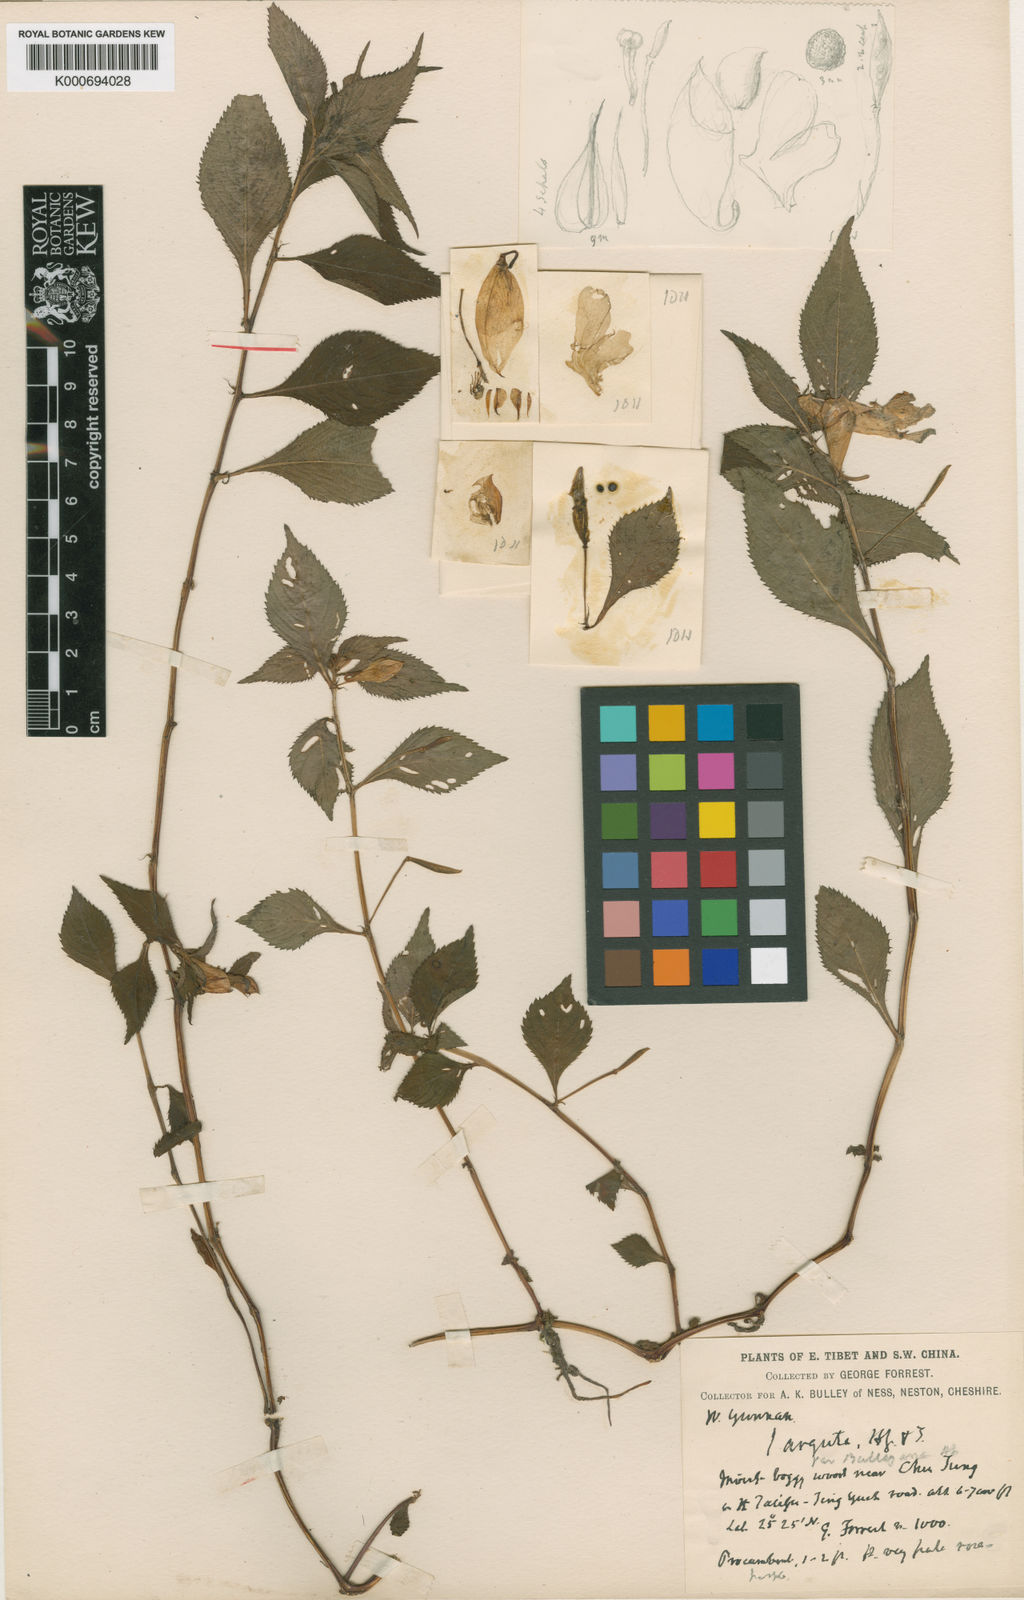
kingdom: Plantae
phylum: Tracheophyta
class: Magnoliopsida
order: Ericales
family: Balsaminaceae
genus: Impatiens
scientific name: Impatiens arguta
